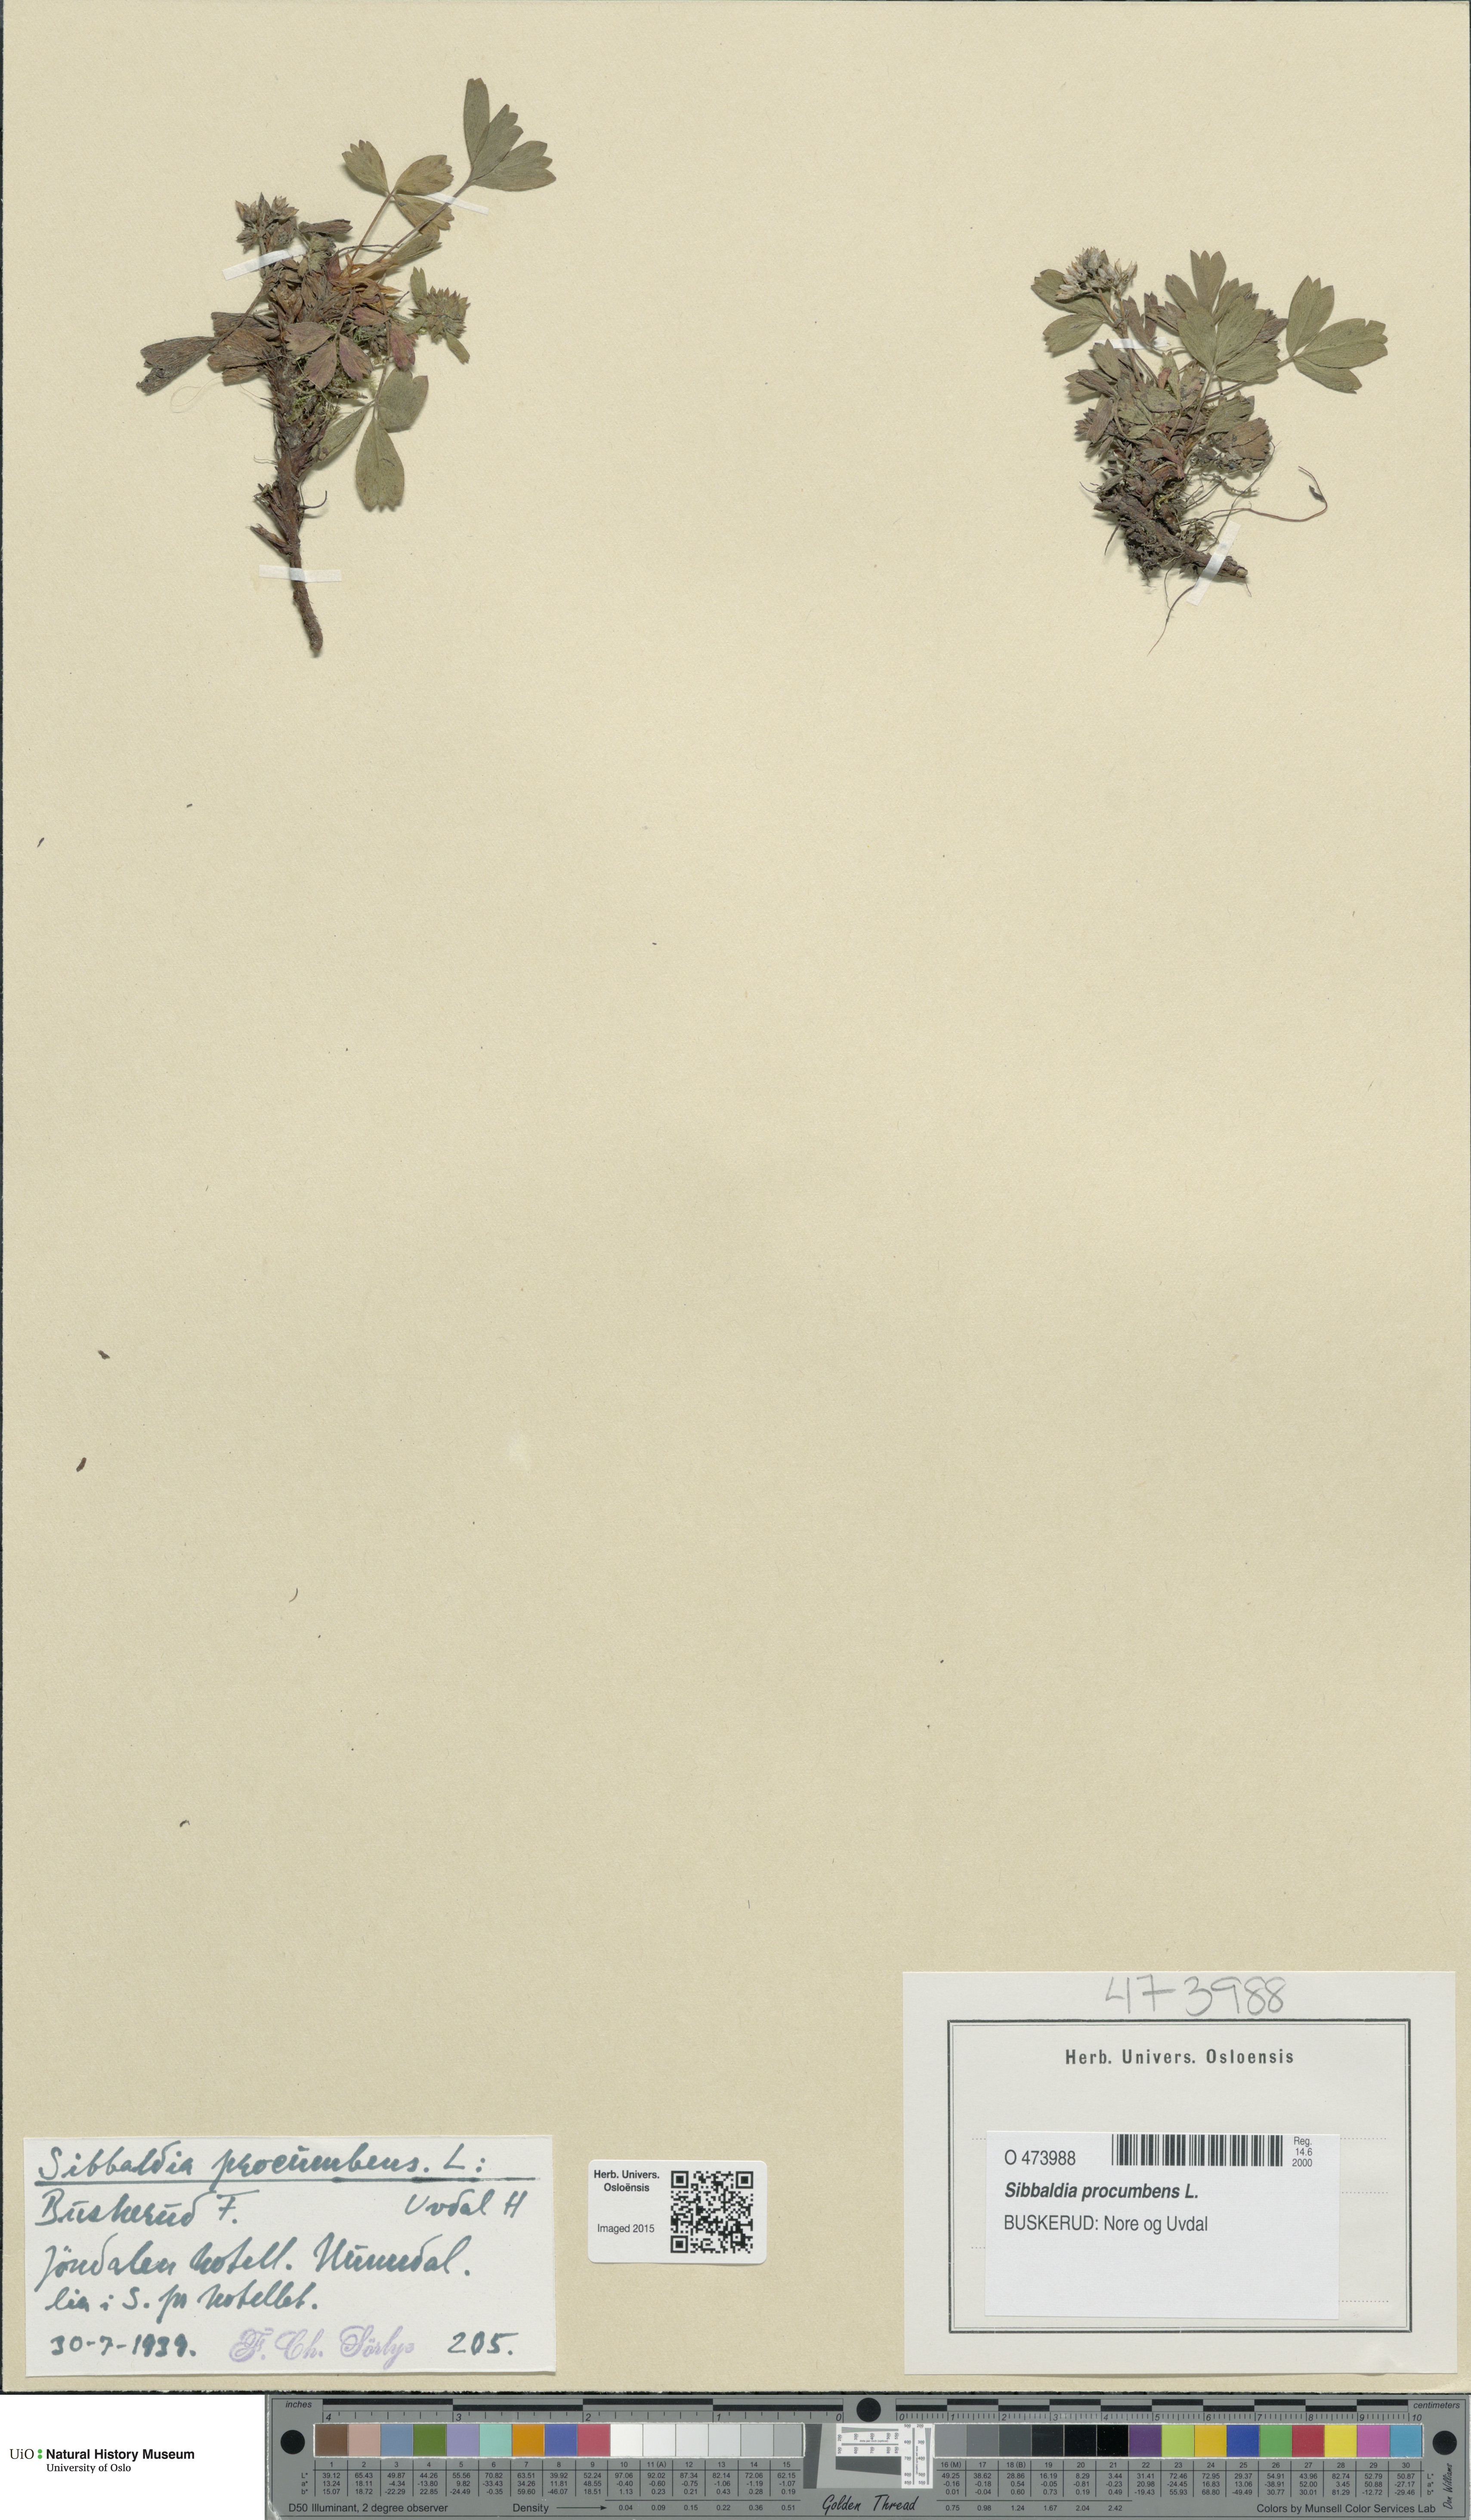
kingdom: Plantae
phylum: Tracheophyta
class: Magnoliopsida
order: Rosales
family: Rosaceae
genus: Sibbaldia
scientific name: Sibbaldia procumbens
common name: Creeping sibbaldia
